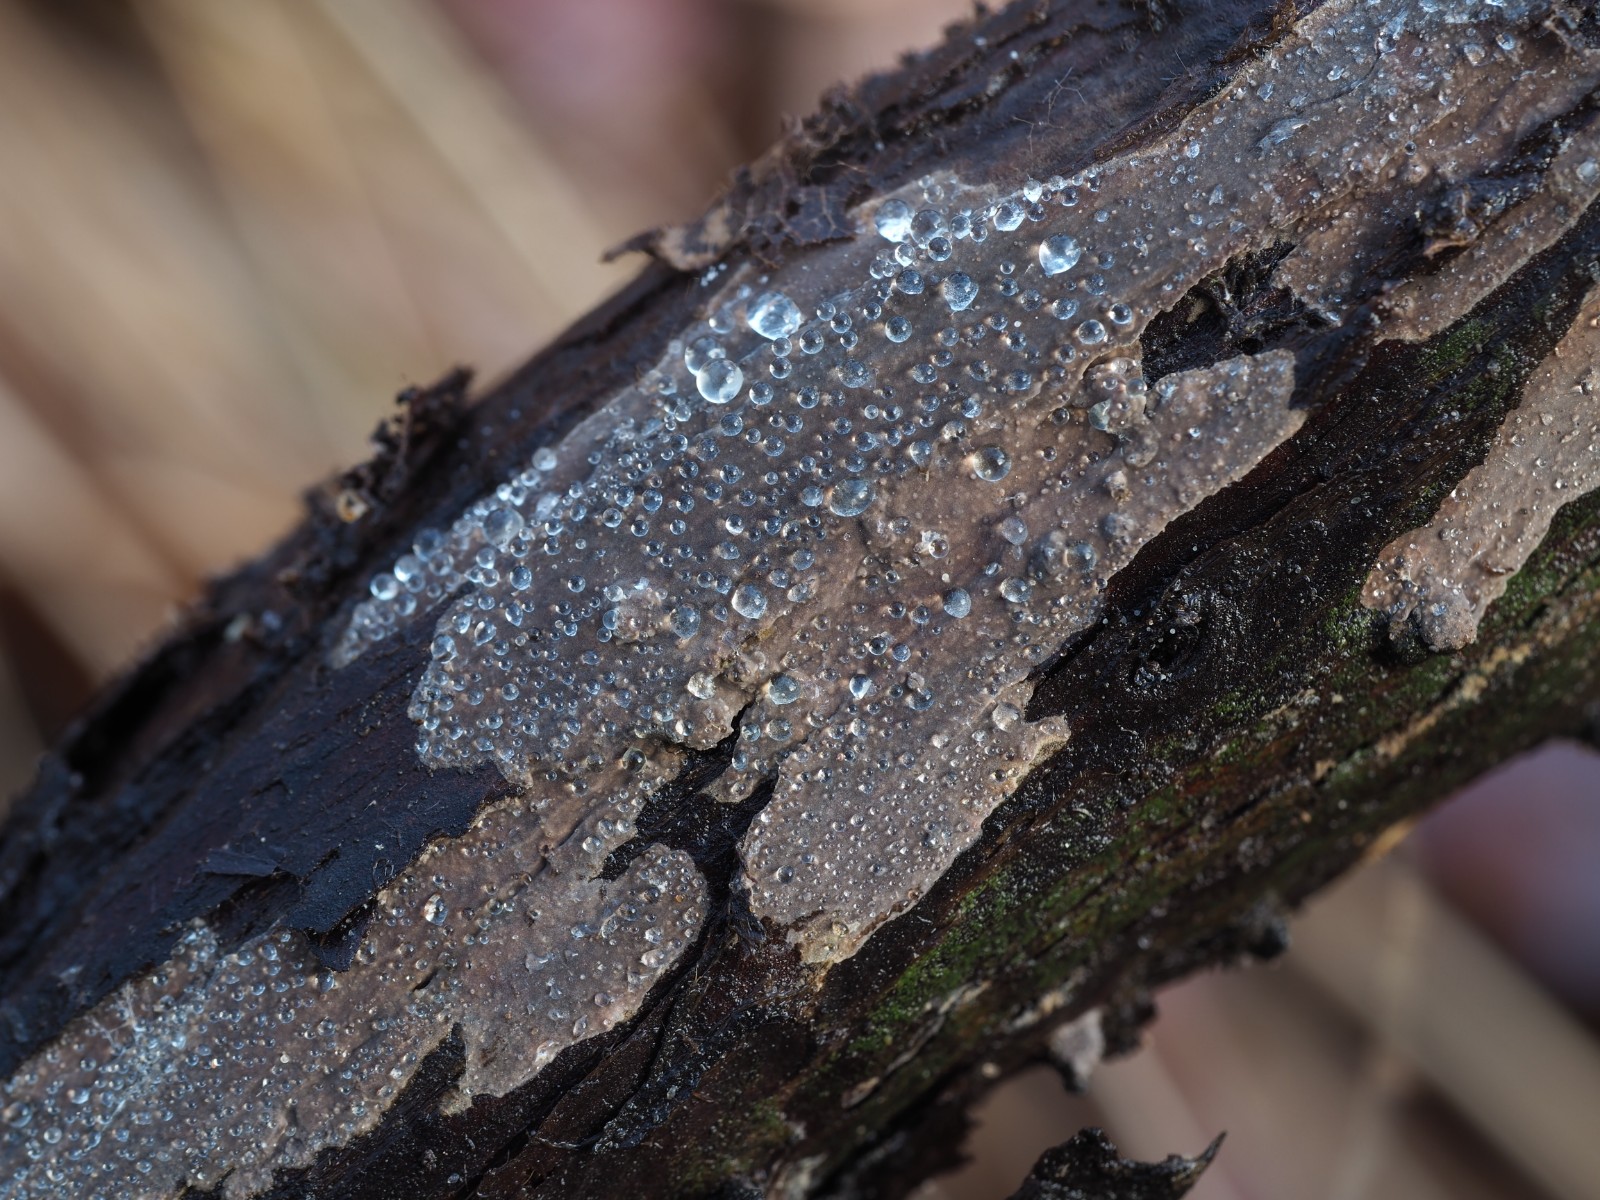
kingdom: Fungi
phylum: Basidiomycota
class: Agaricomycetes
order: Russulales
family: Echinodontiaceae
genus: Amylostereum
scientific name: Amylostereum laevigatum
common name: ene-lædersvamp
